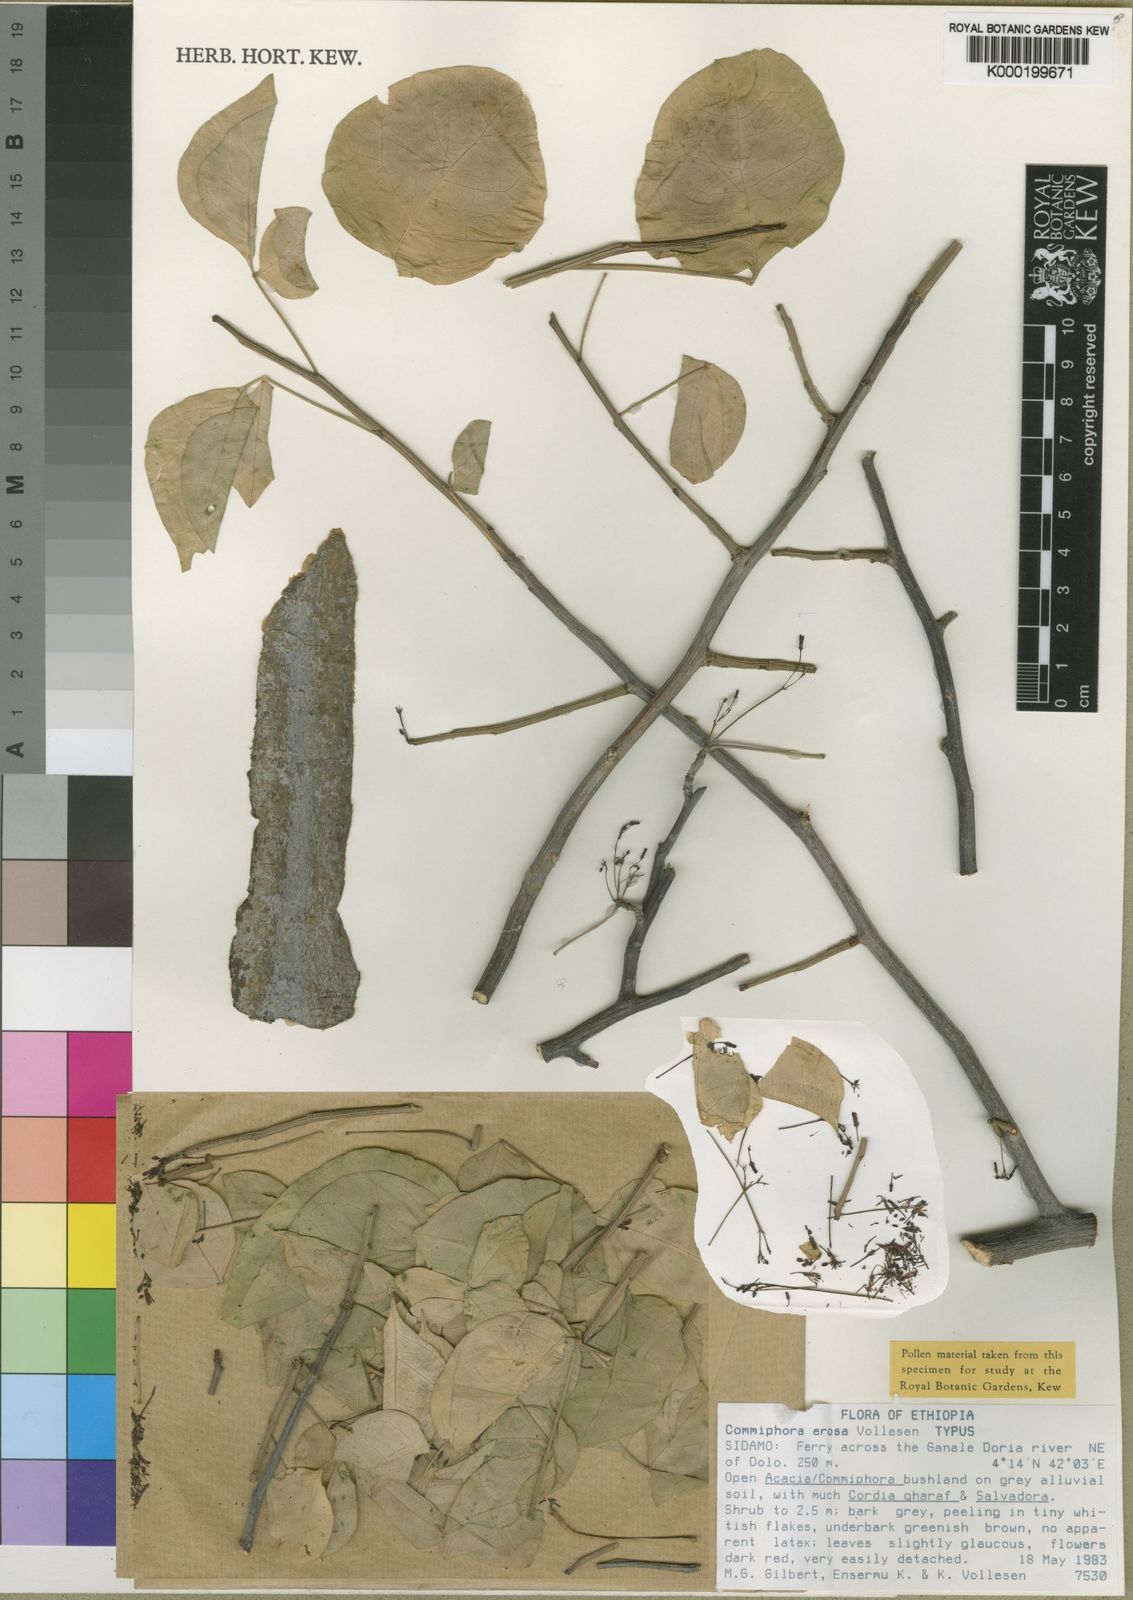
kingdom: Plantae
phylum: Tracheophyta
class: Magnoliopsida
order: Sapindales
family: Burseraceae
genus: Commiphora
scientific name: Commiphora erosa
